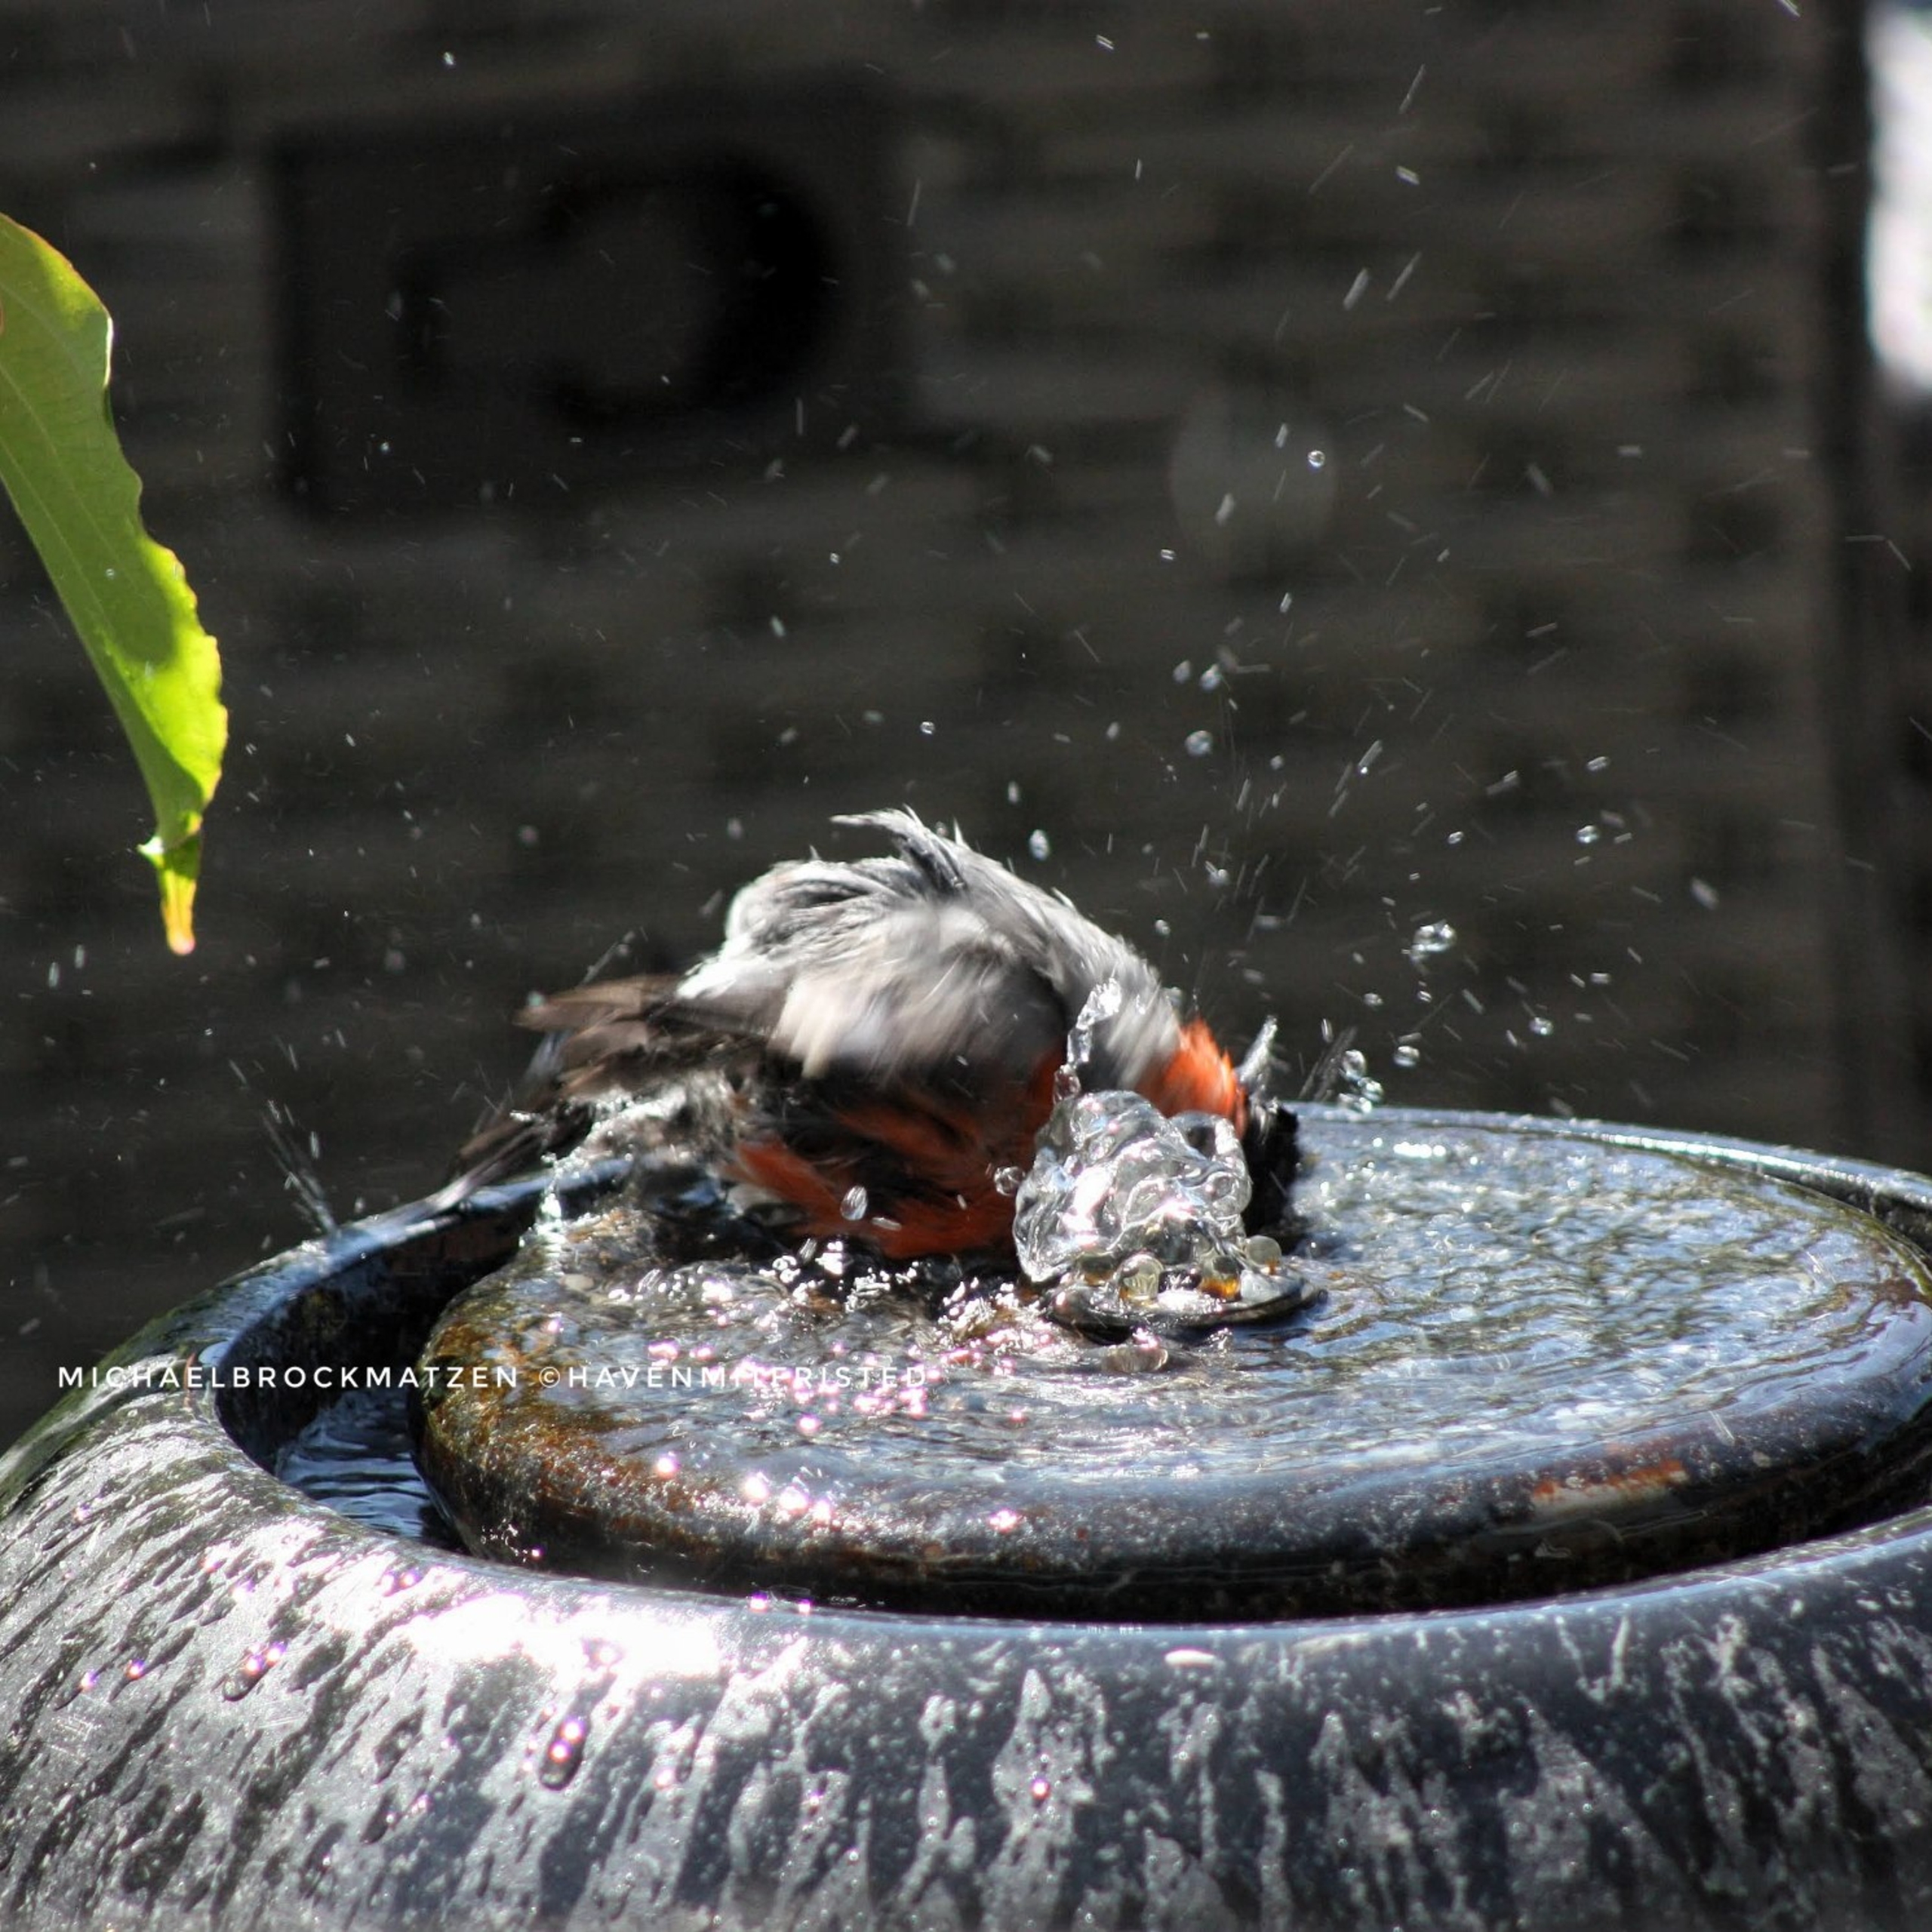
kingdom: Animalia
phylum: Chordata
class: Aves
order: Passeriformes
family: Fringillidae
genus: Pyrrhula
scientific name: Pyrrhula pyrrhula
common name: Dompap
